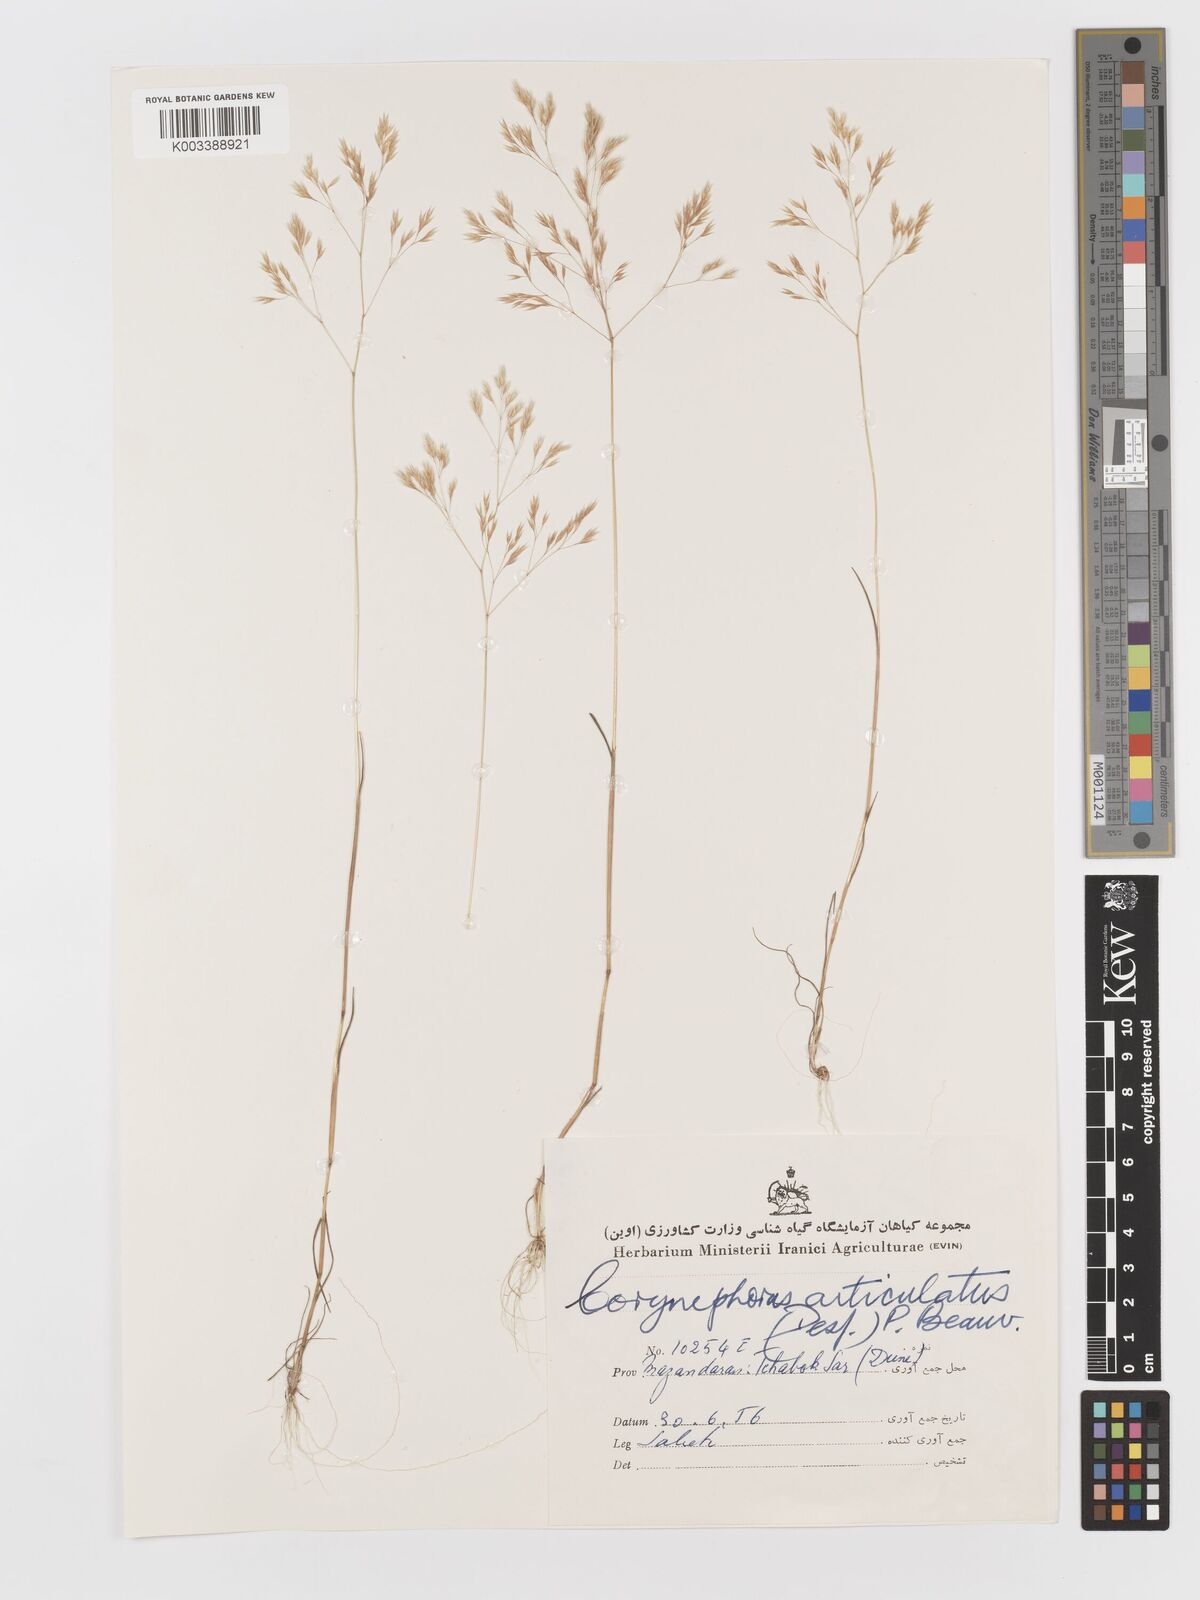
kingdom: Plantae
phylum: Tracheophyta
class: Liliopsida
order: Poales
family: Poaceae
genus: Corynephorus
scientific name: Corynephorus divaricatus
